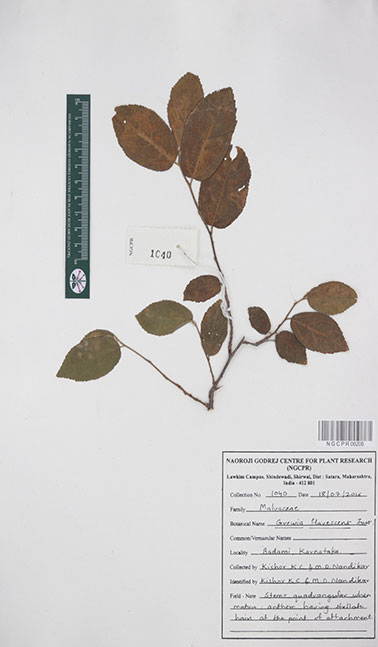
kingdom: Plantae
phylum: Tracheophyta
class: Magnoliopsida
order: Malvales
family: Malvaceae
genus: Grewia
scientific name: Grewia flavescens
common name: Sandpaper raisin
